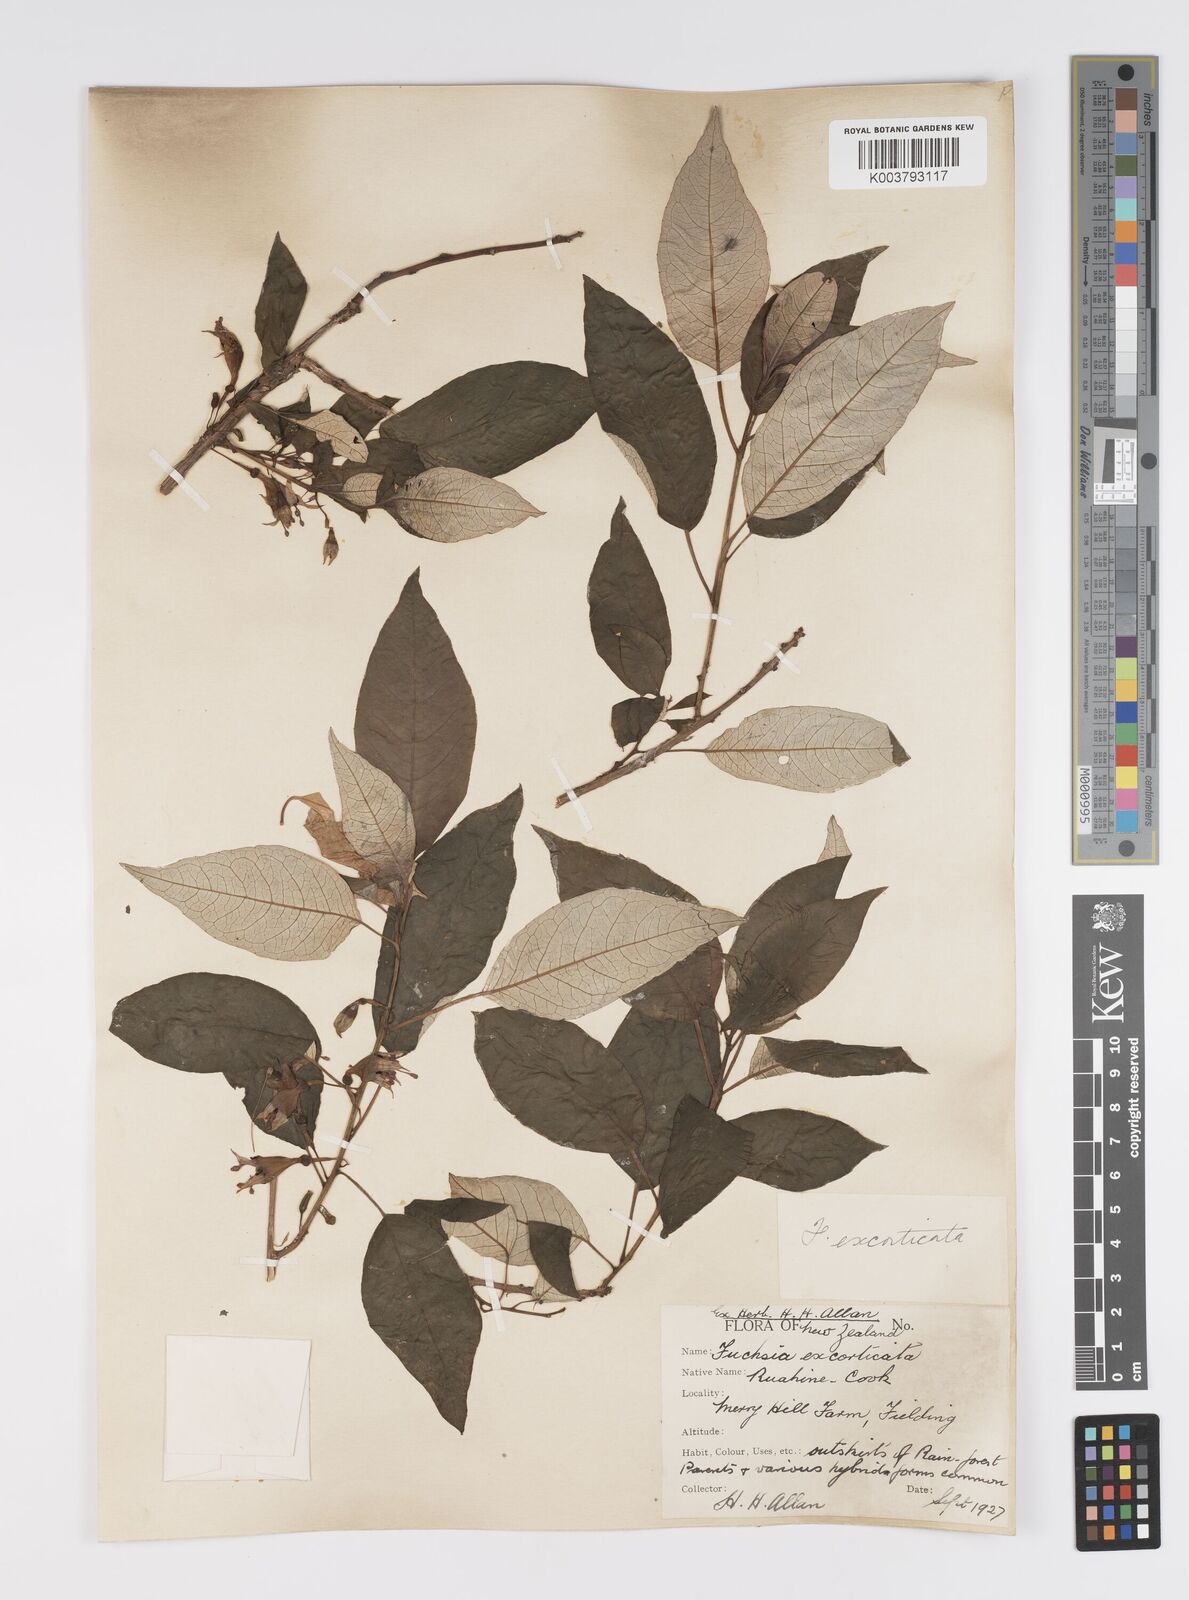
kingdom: Plantae
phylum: Tracheophyta
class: Magnoliopsida
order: Myrtales
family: Onagraceae
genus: Fuchsia
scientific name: Fuchsia
